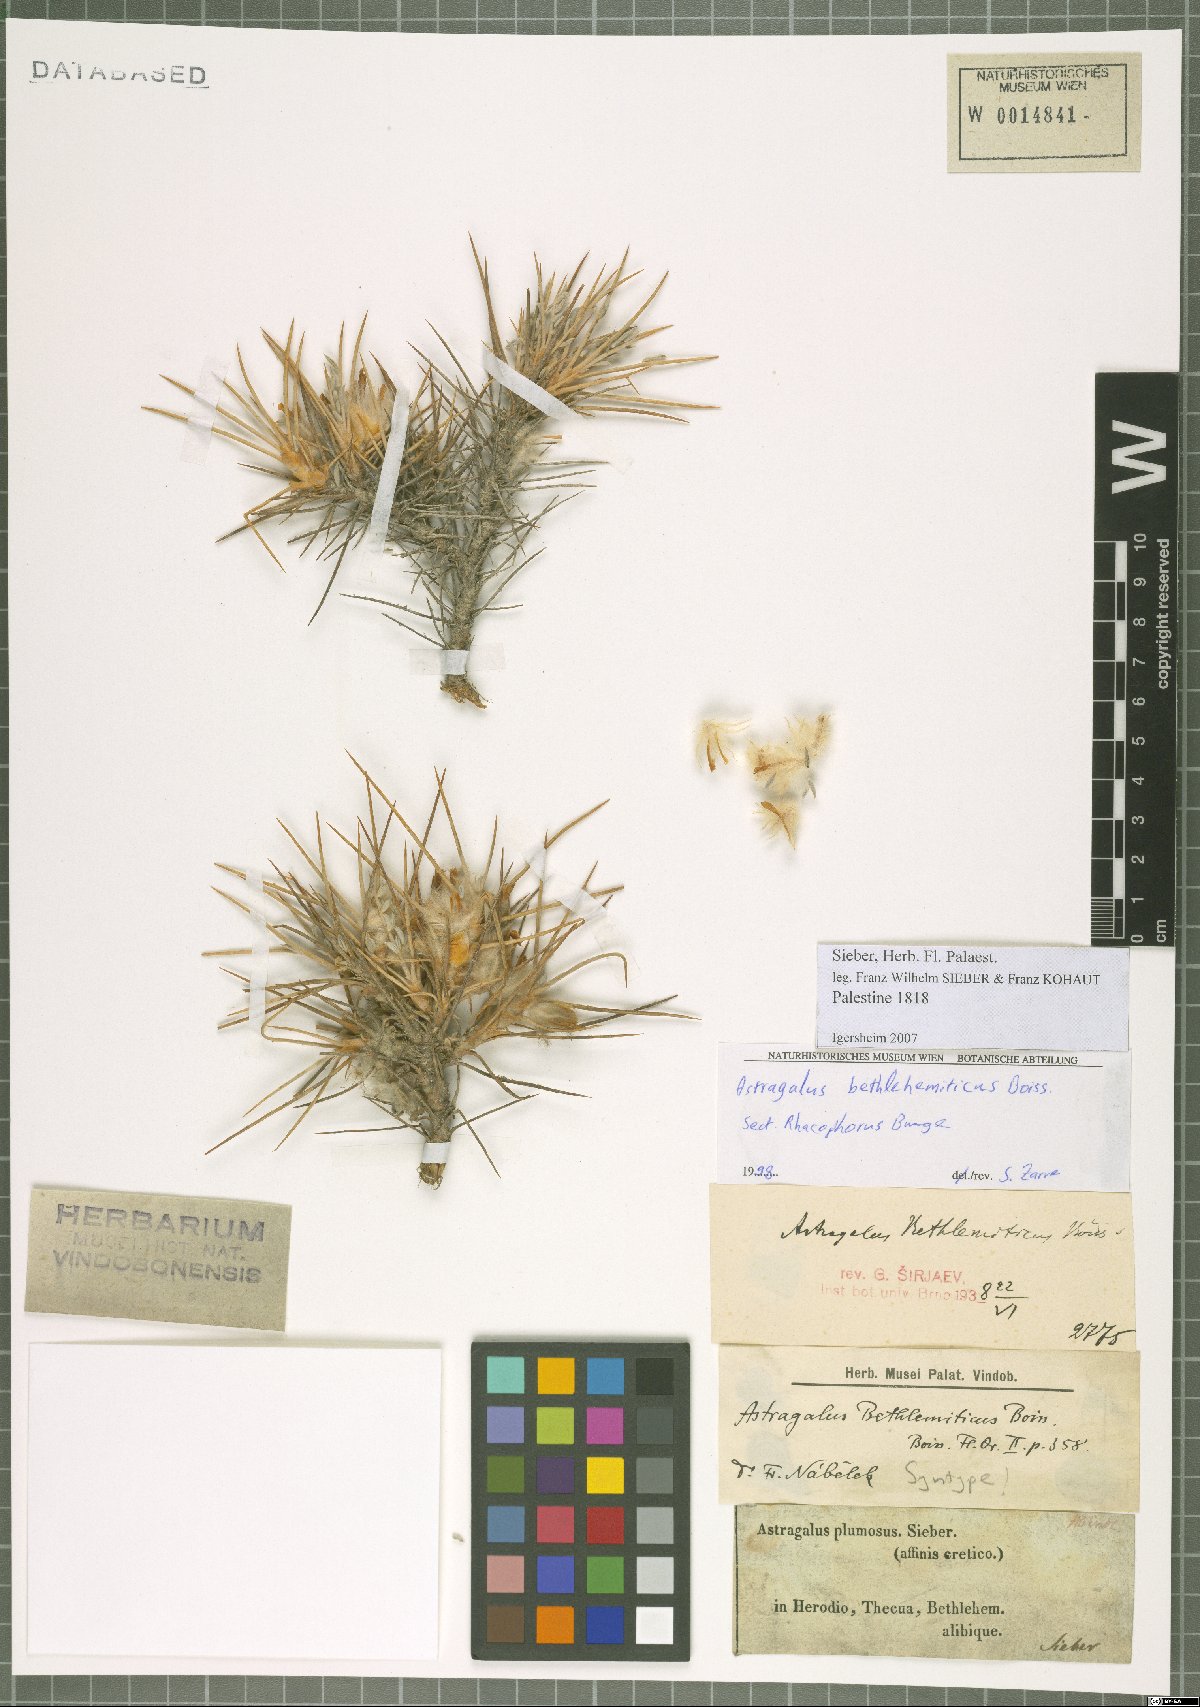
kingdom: Plantae
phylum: Tracheophyta
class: Magnoliopsida
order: Fabales
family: Fabaceae
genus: Astragalus
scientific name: Astragalus bethlehemiticus
